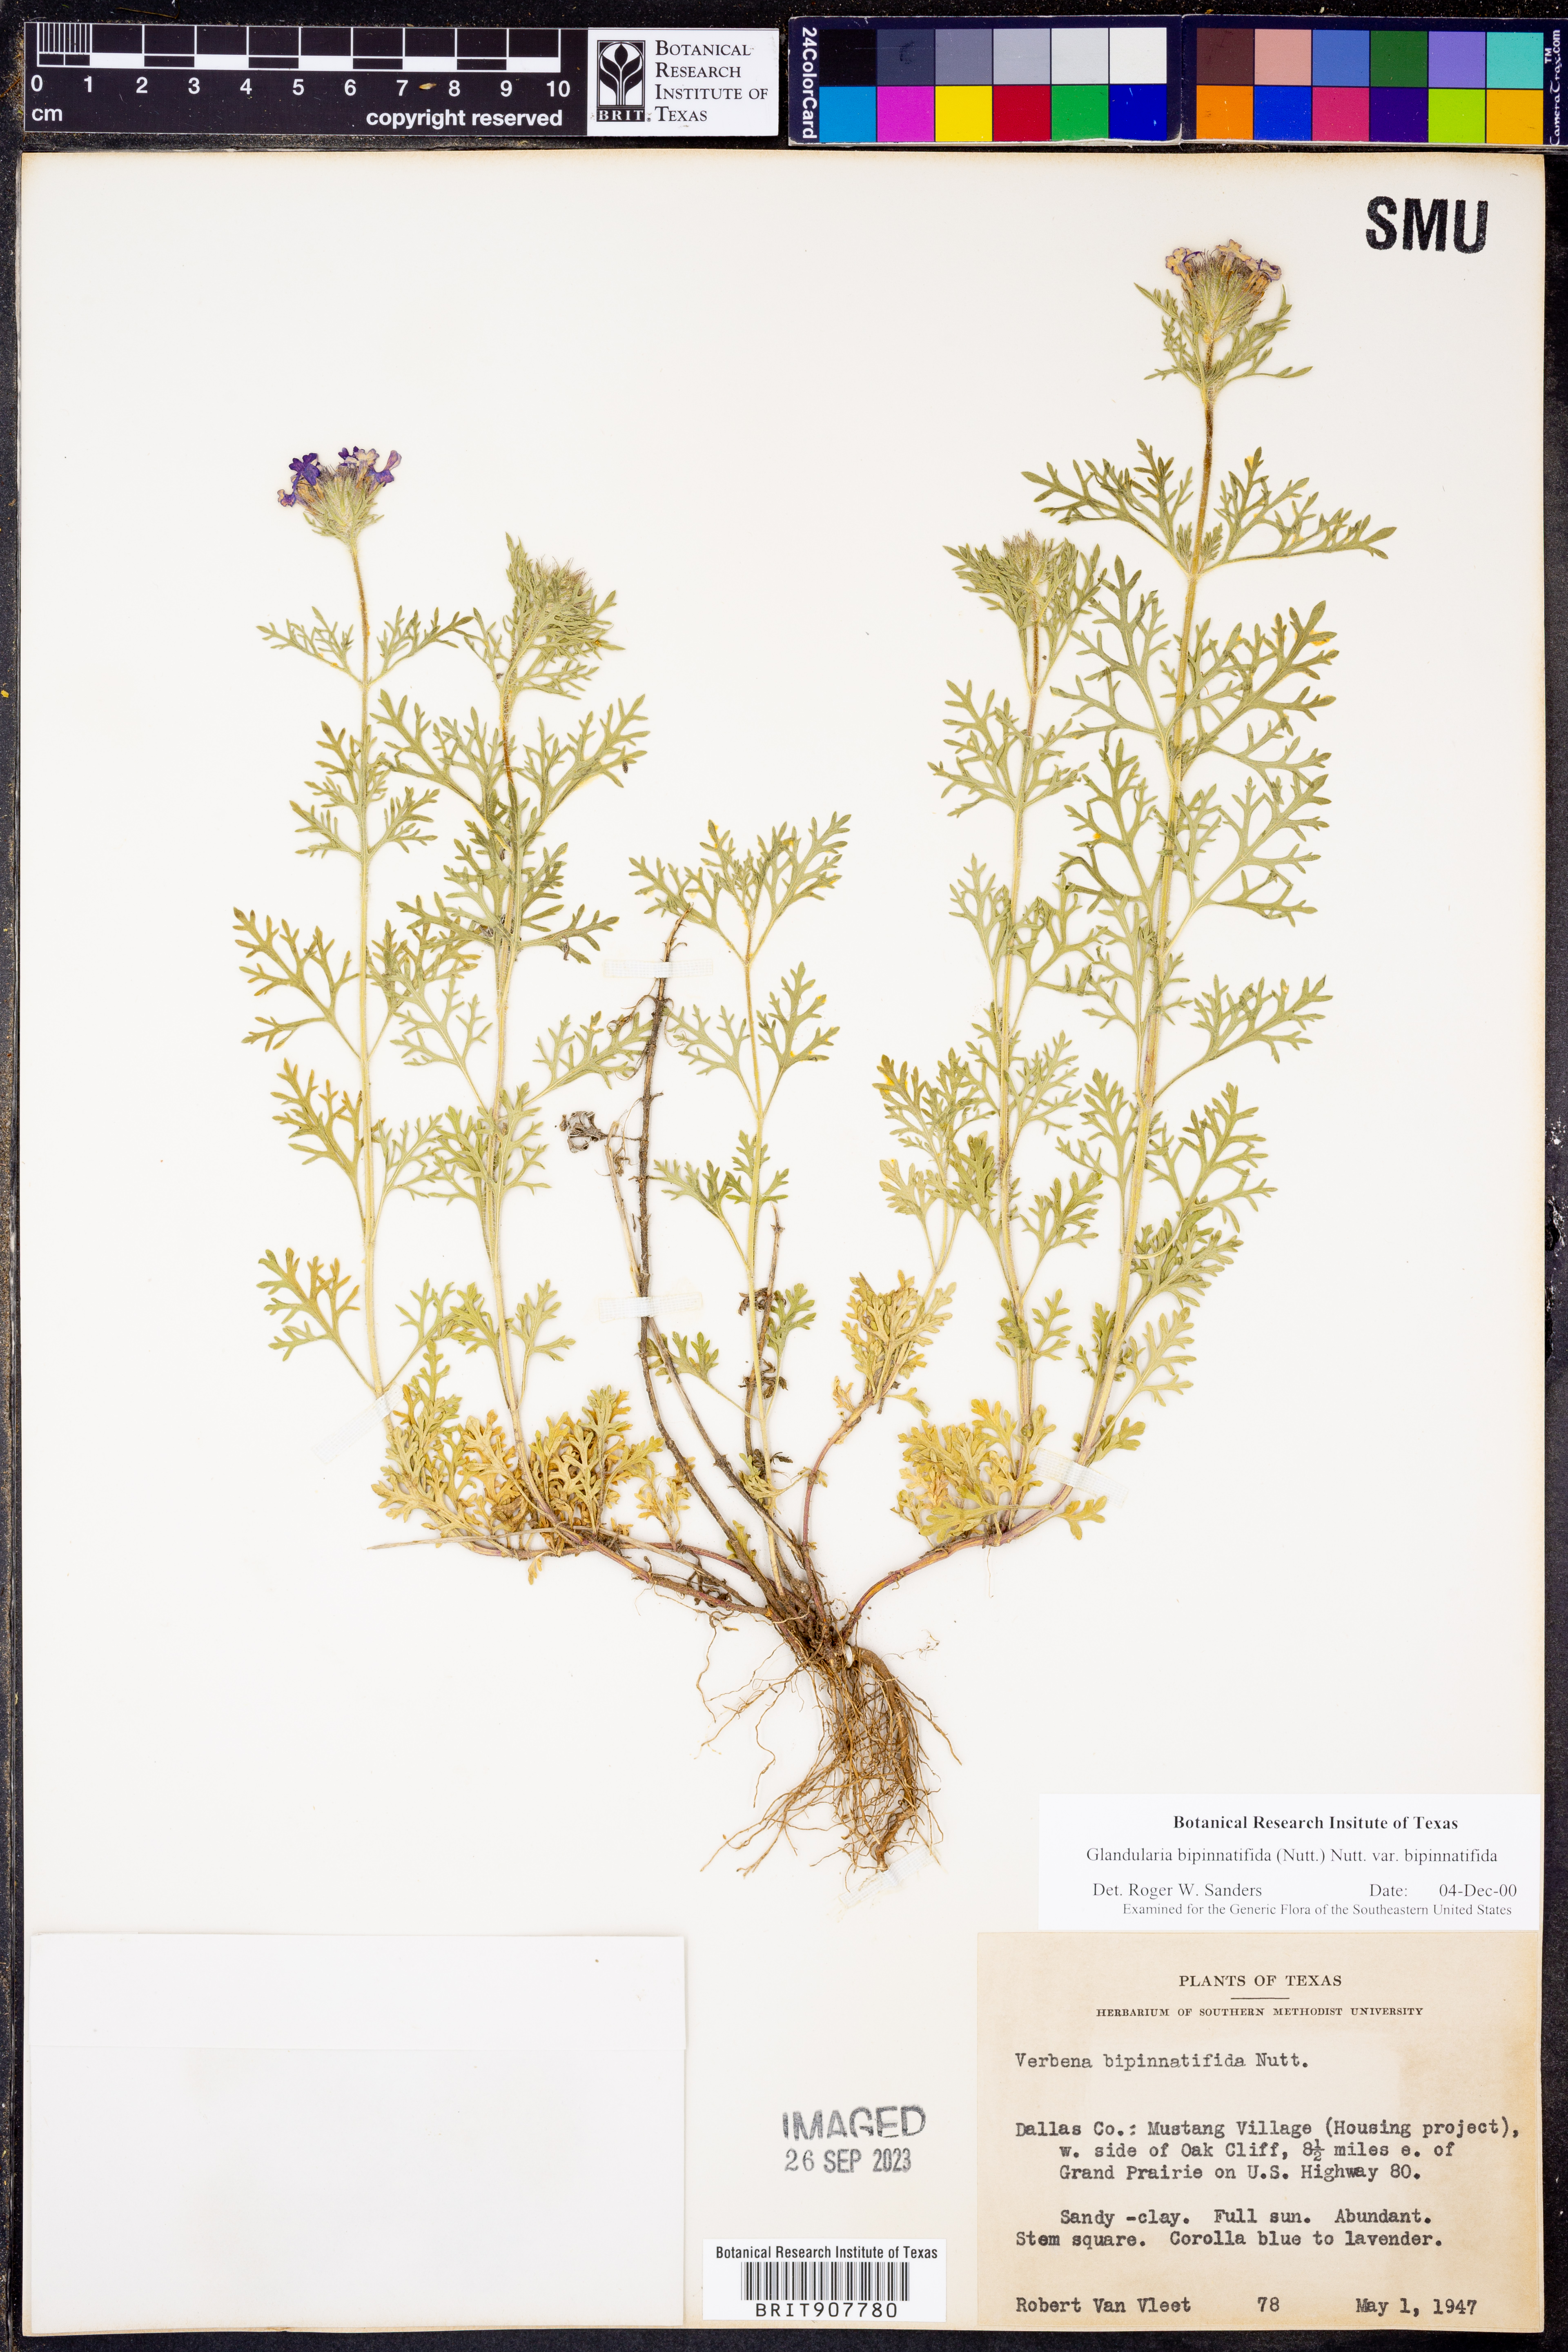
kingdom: Plantae
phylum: Tracheophyta
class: Magnoliopsida
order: Lamiales
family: Verbenaceae
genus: Verbena
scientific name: Verbena bipinnatifida
